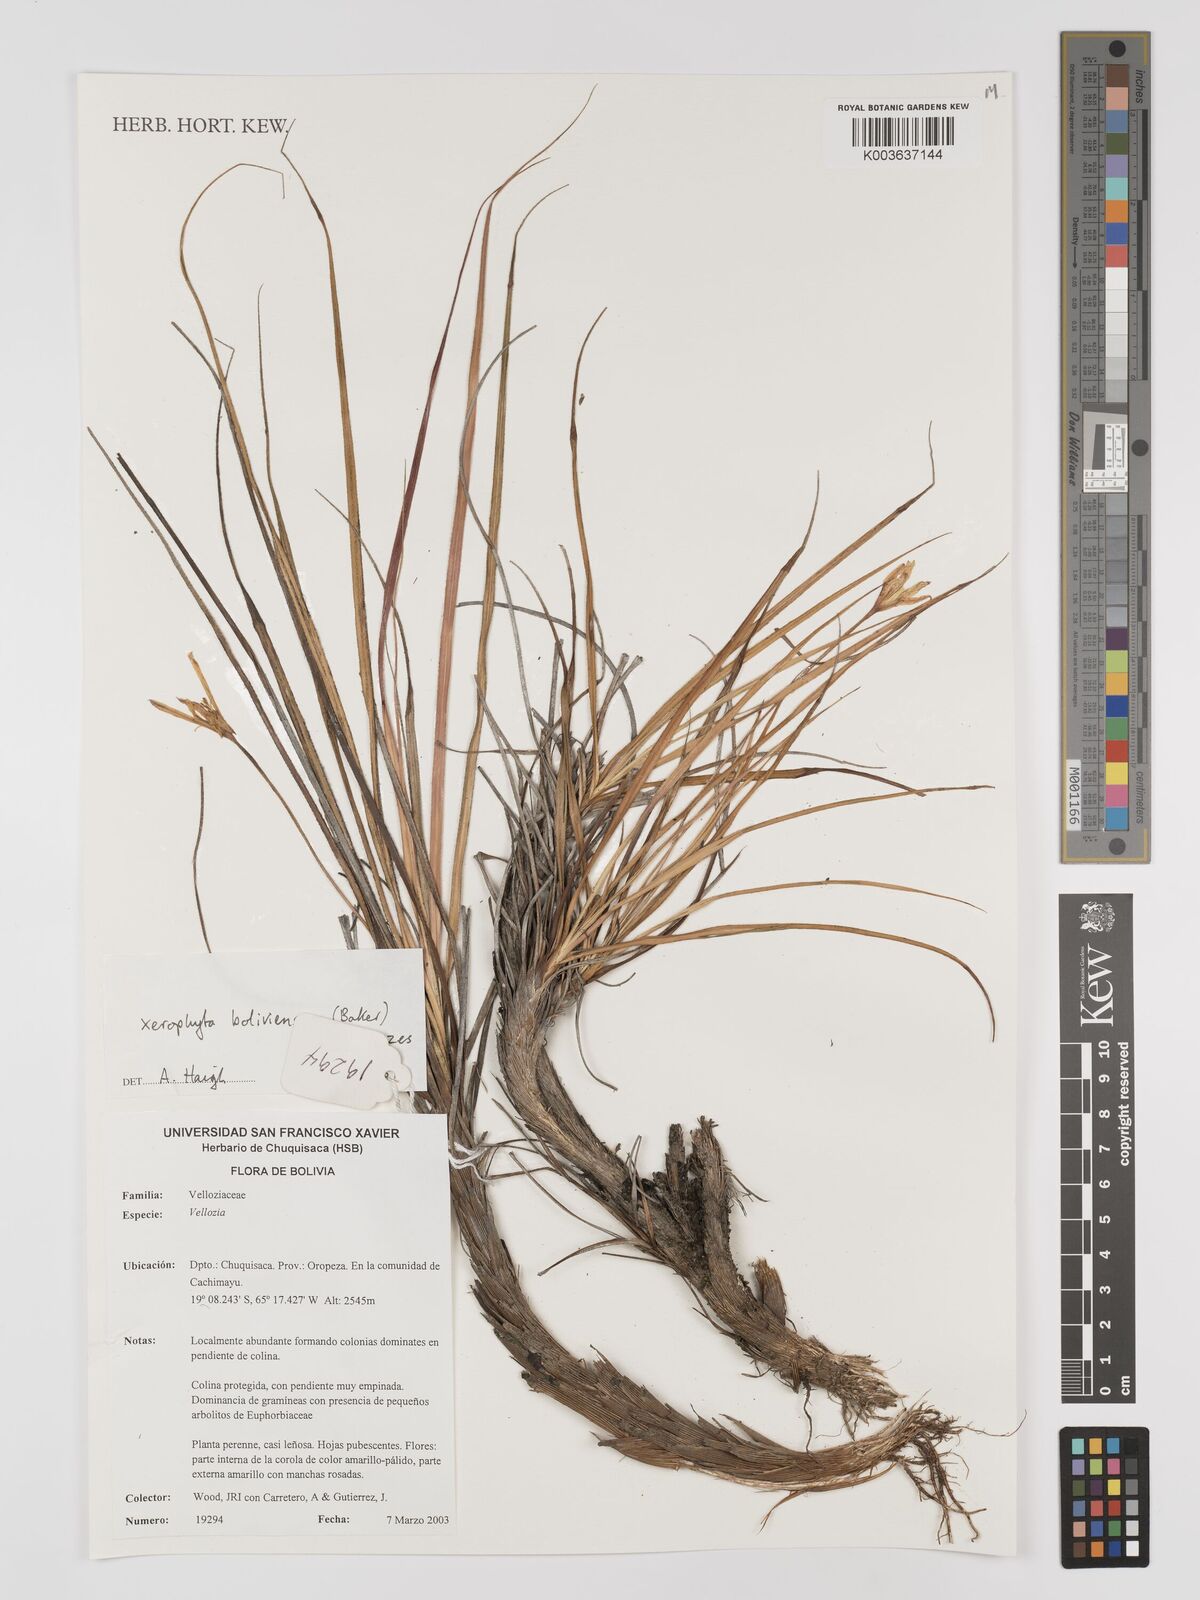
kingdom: Plantae
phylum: Tracheophyta
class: Liliopsida
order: Pandanales
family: Velloziaceae
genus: Barbaceniopsis
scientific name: Barbaceniopsis boliviensis
